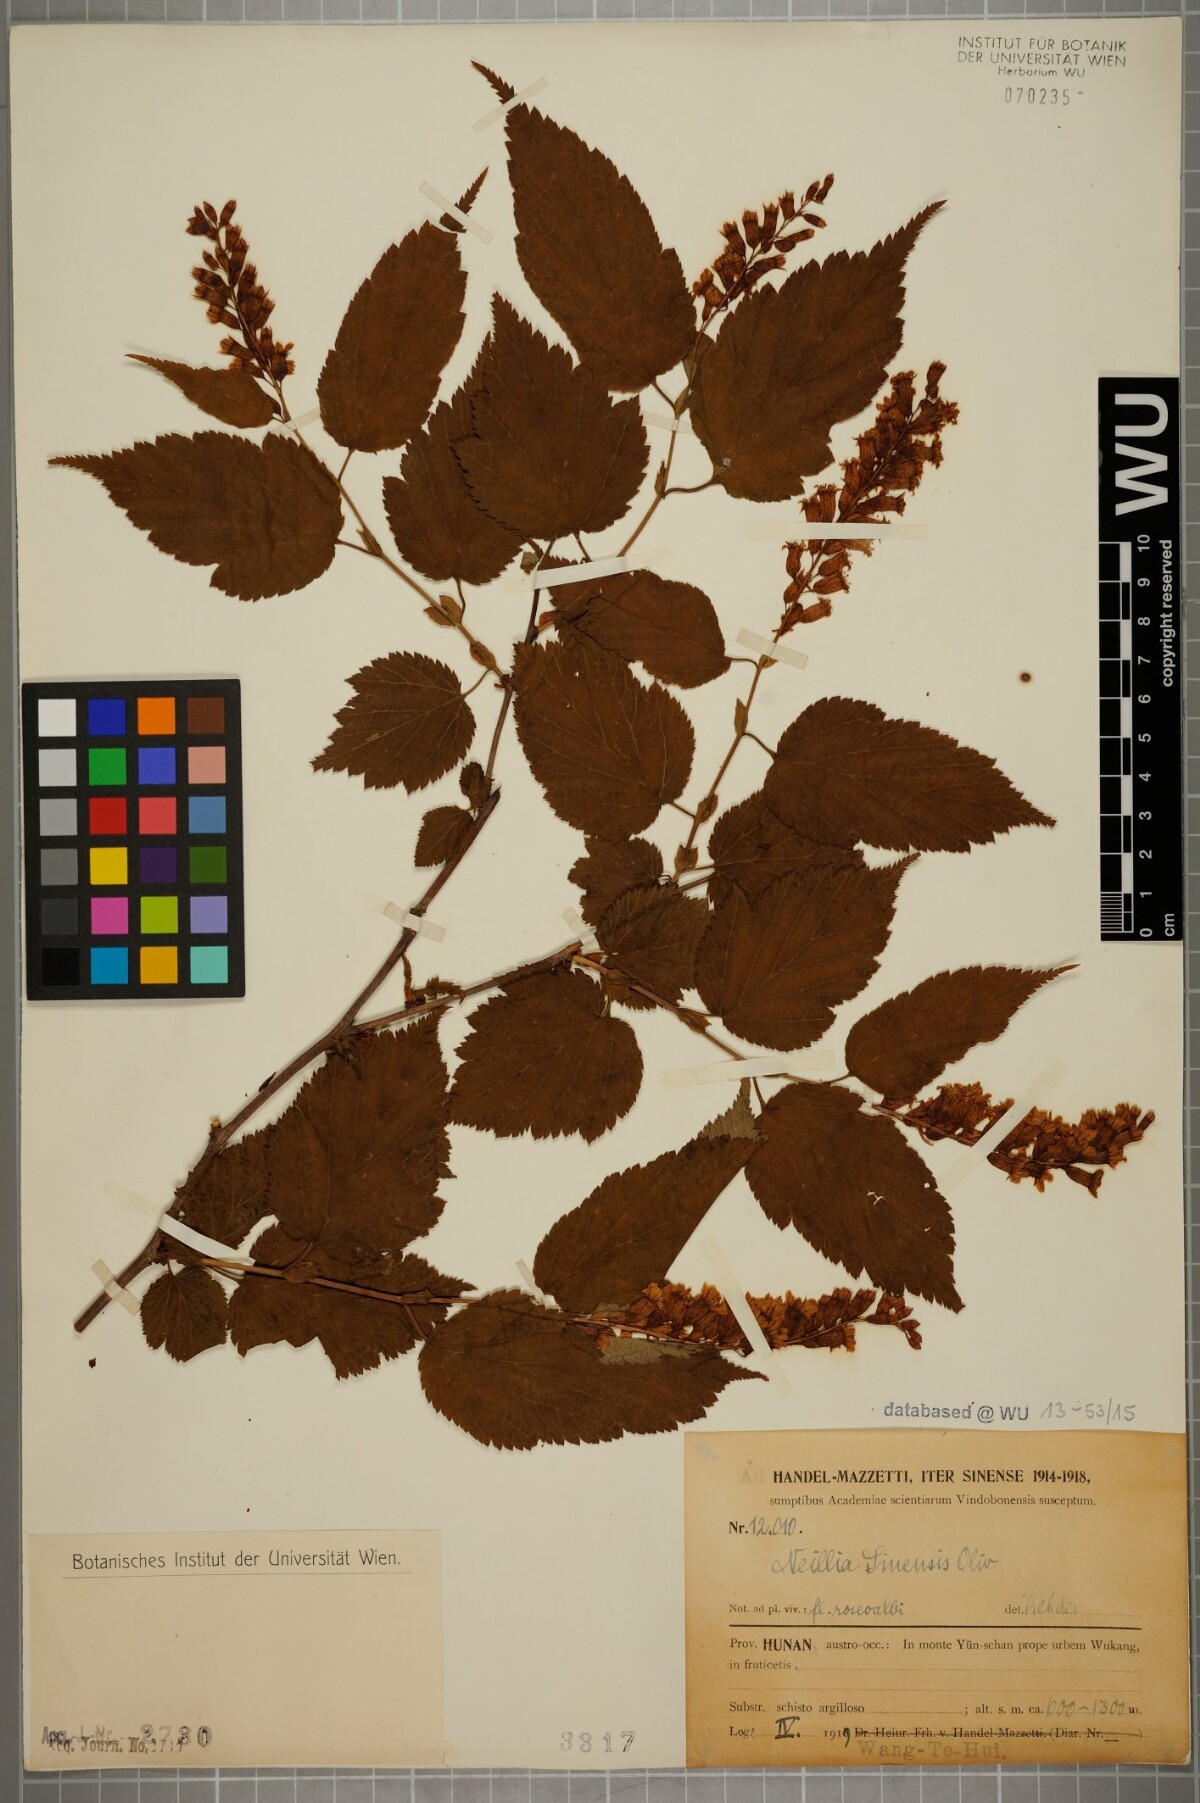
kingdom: Plantae
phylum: Tracheophyta
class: Magnoliopsida
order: Rosales
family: Rosaceae
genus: Neillia
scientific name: Neillia sinensis
